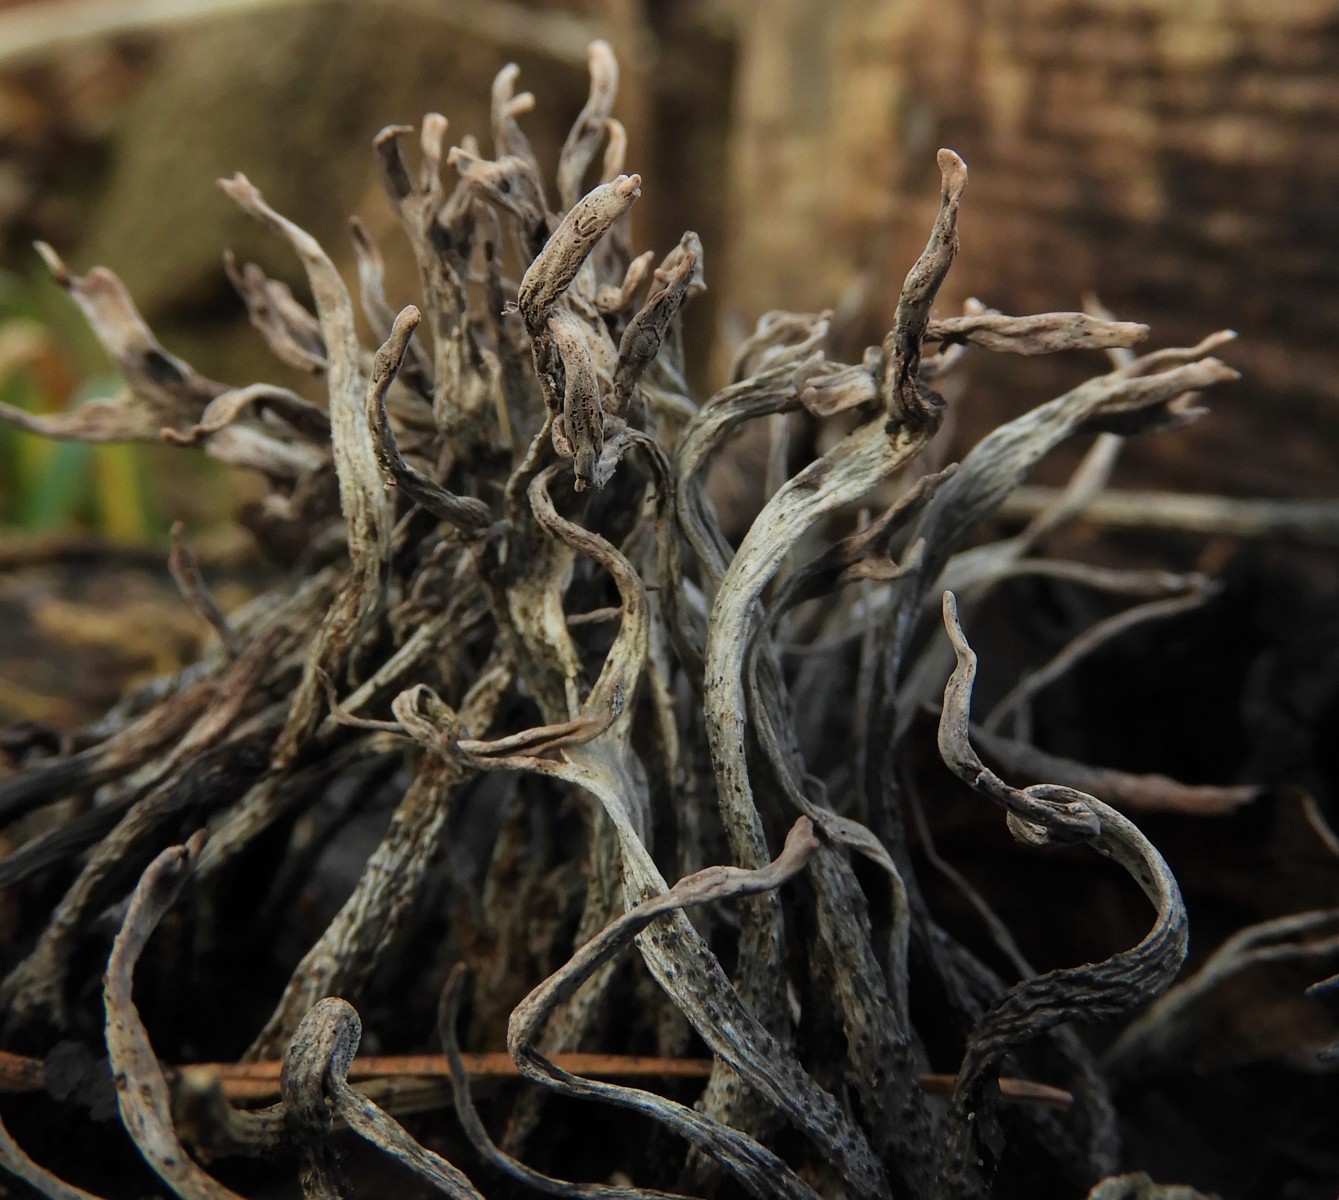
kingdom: Fungi
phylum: Ascomycota
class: Sordariomycetes
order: Xylariales
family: Xylariaceae
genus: Xylaria
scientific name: Xylaria hypoxylon
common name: grenet stødsvamp
